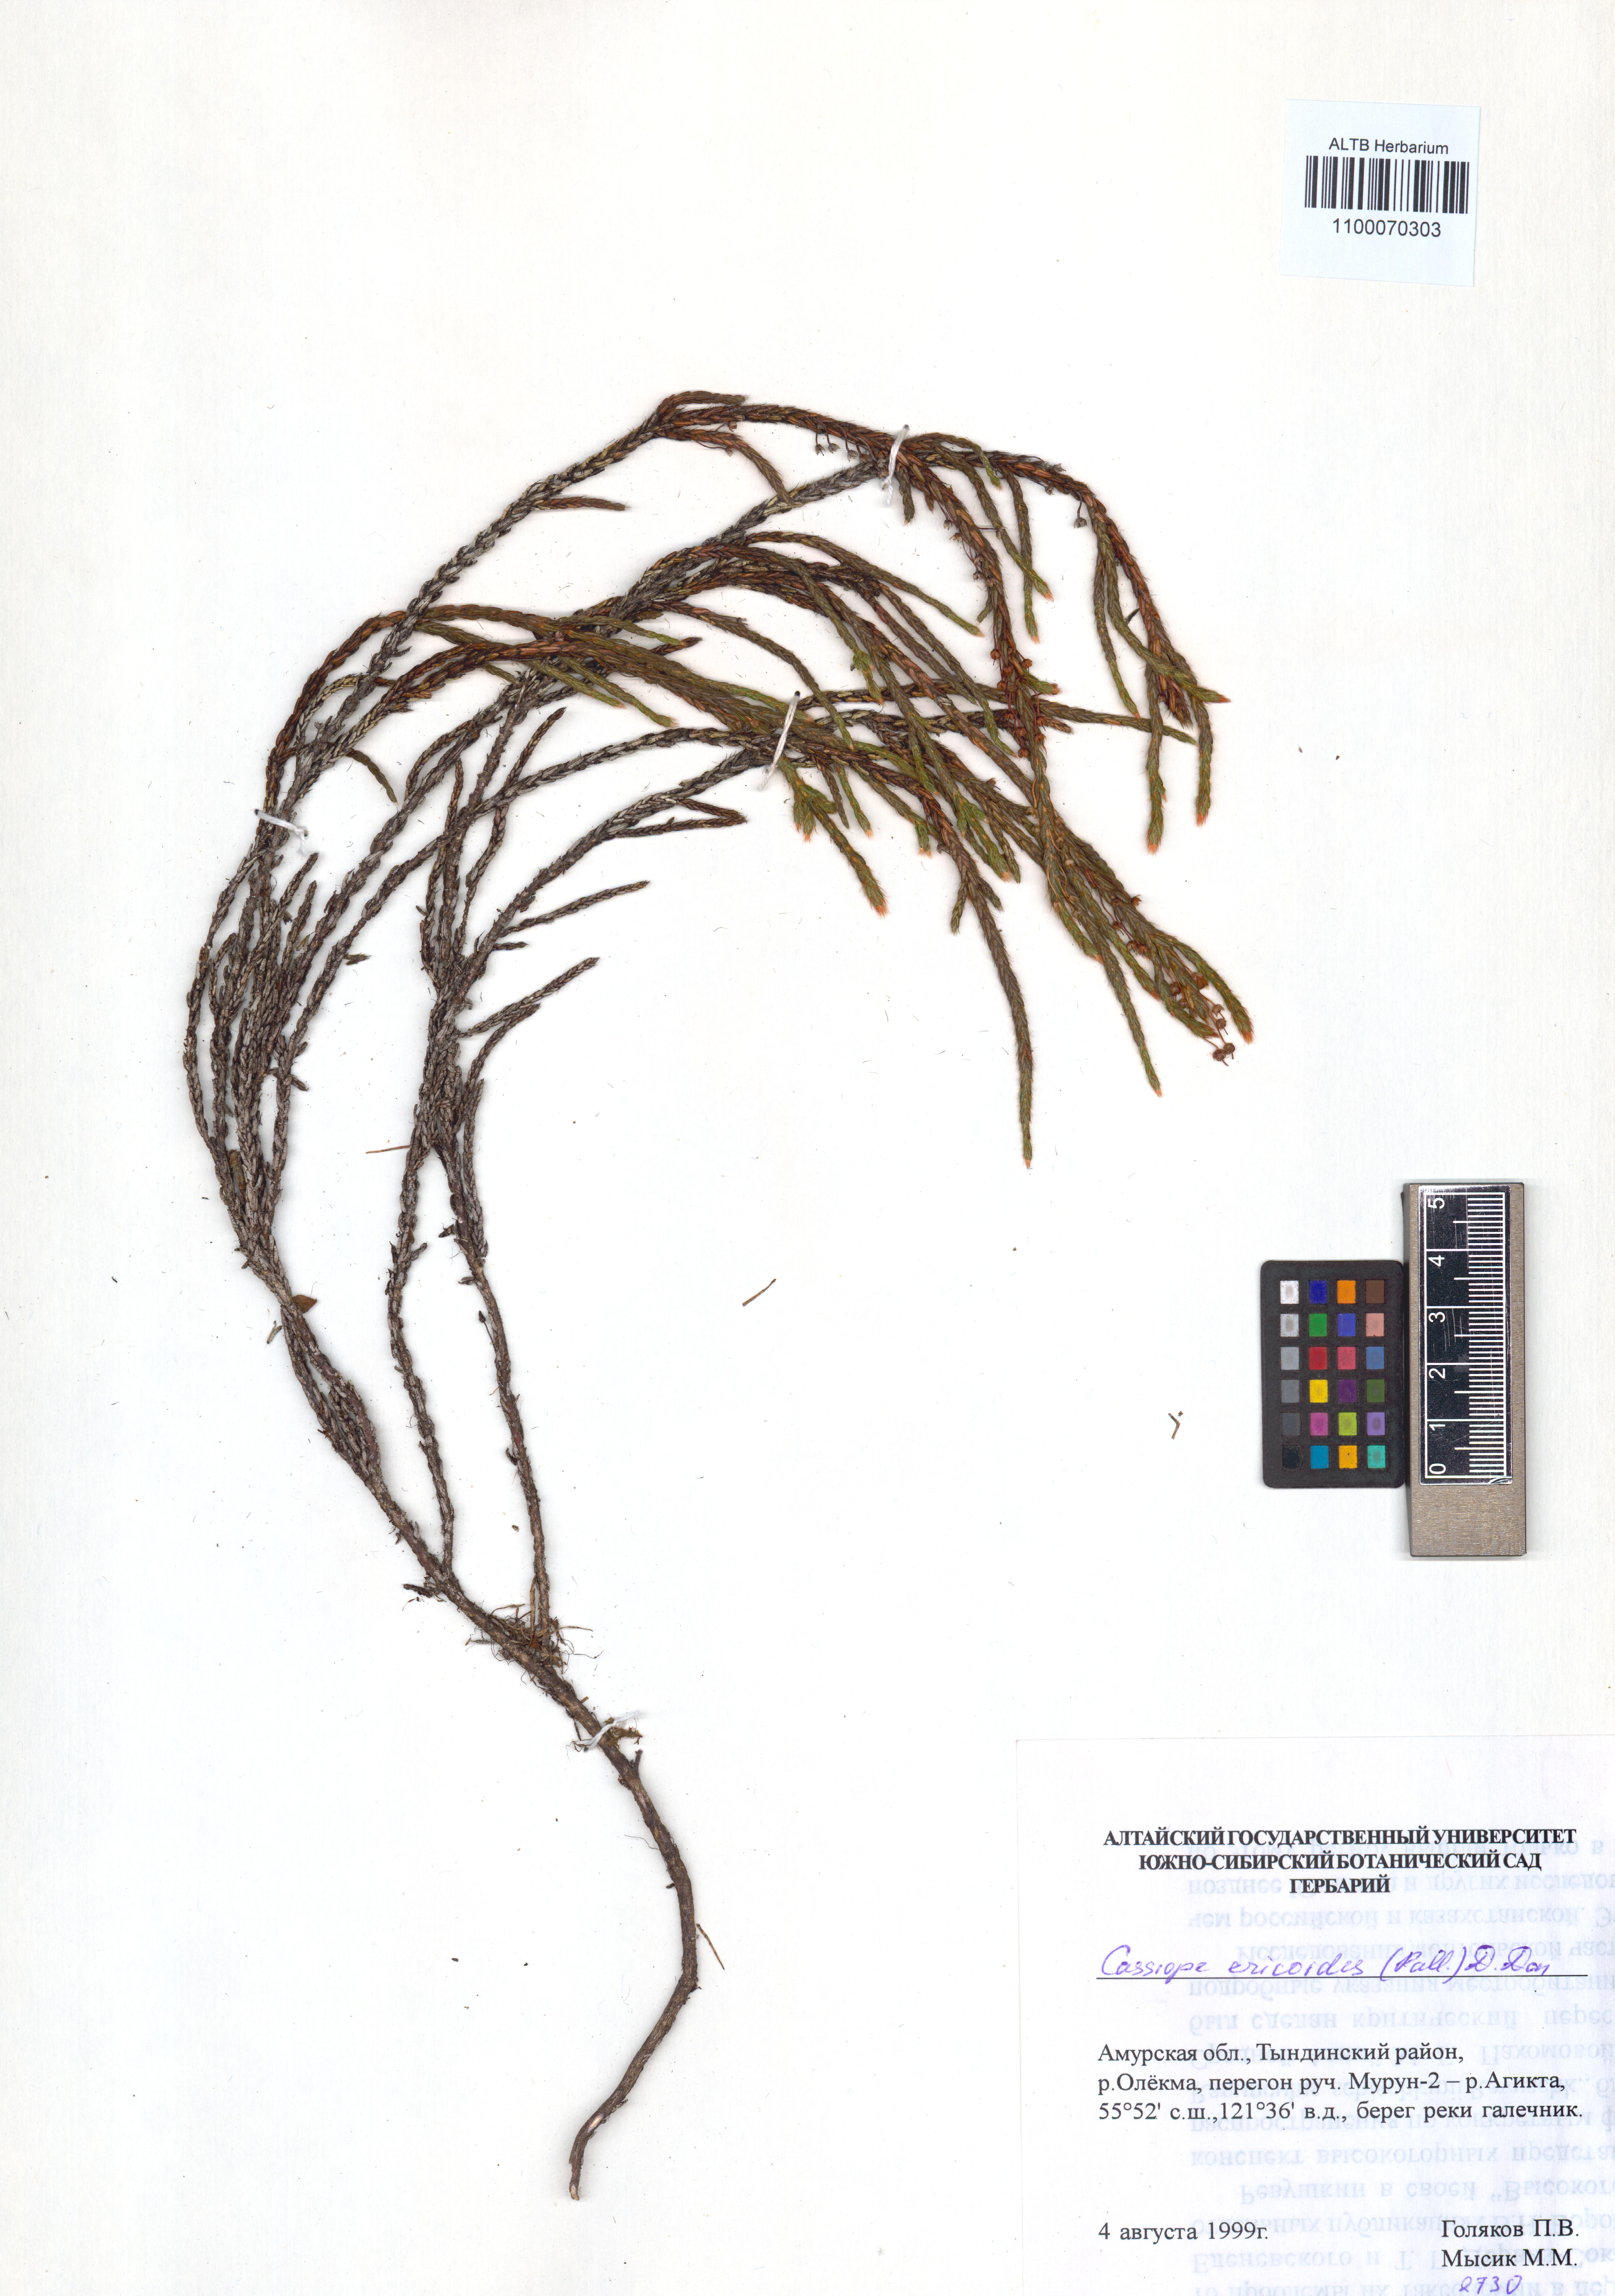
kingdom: Plantae
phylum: Tracheophyta
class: Magnoliopsida
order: Ericales
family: Ericaceae
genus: Cassiope
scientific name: Cassiope ericoides
